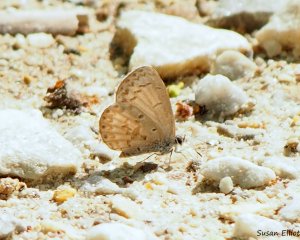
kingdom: Animalia
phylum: Arthropoda
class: Insecta
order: Lepidoptera
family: Lycaenidae
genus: Celastrina
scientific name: Celastrina
